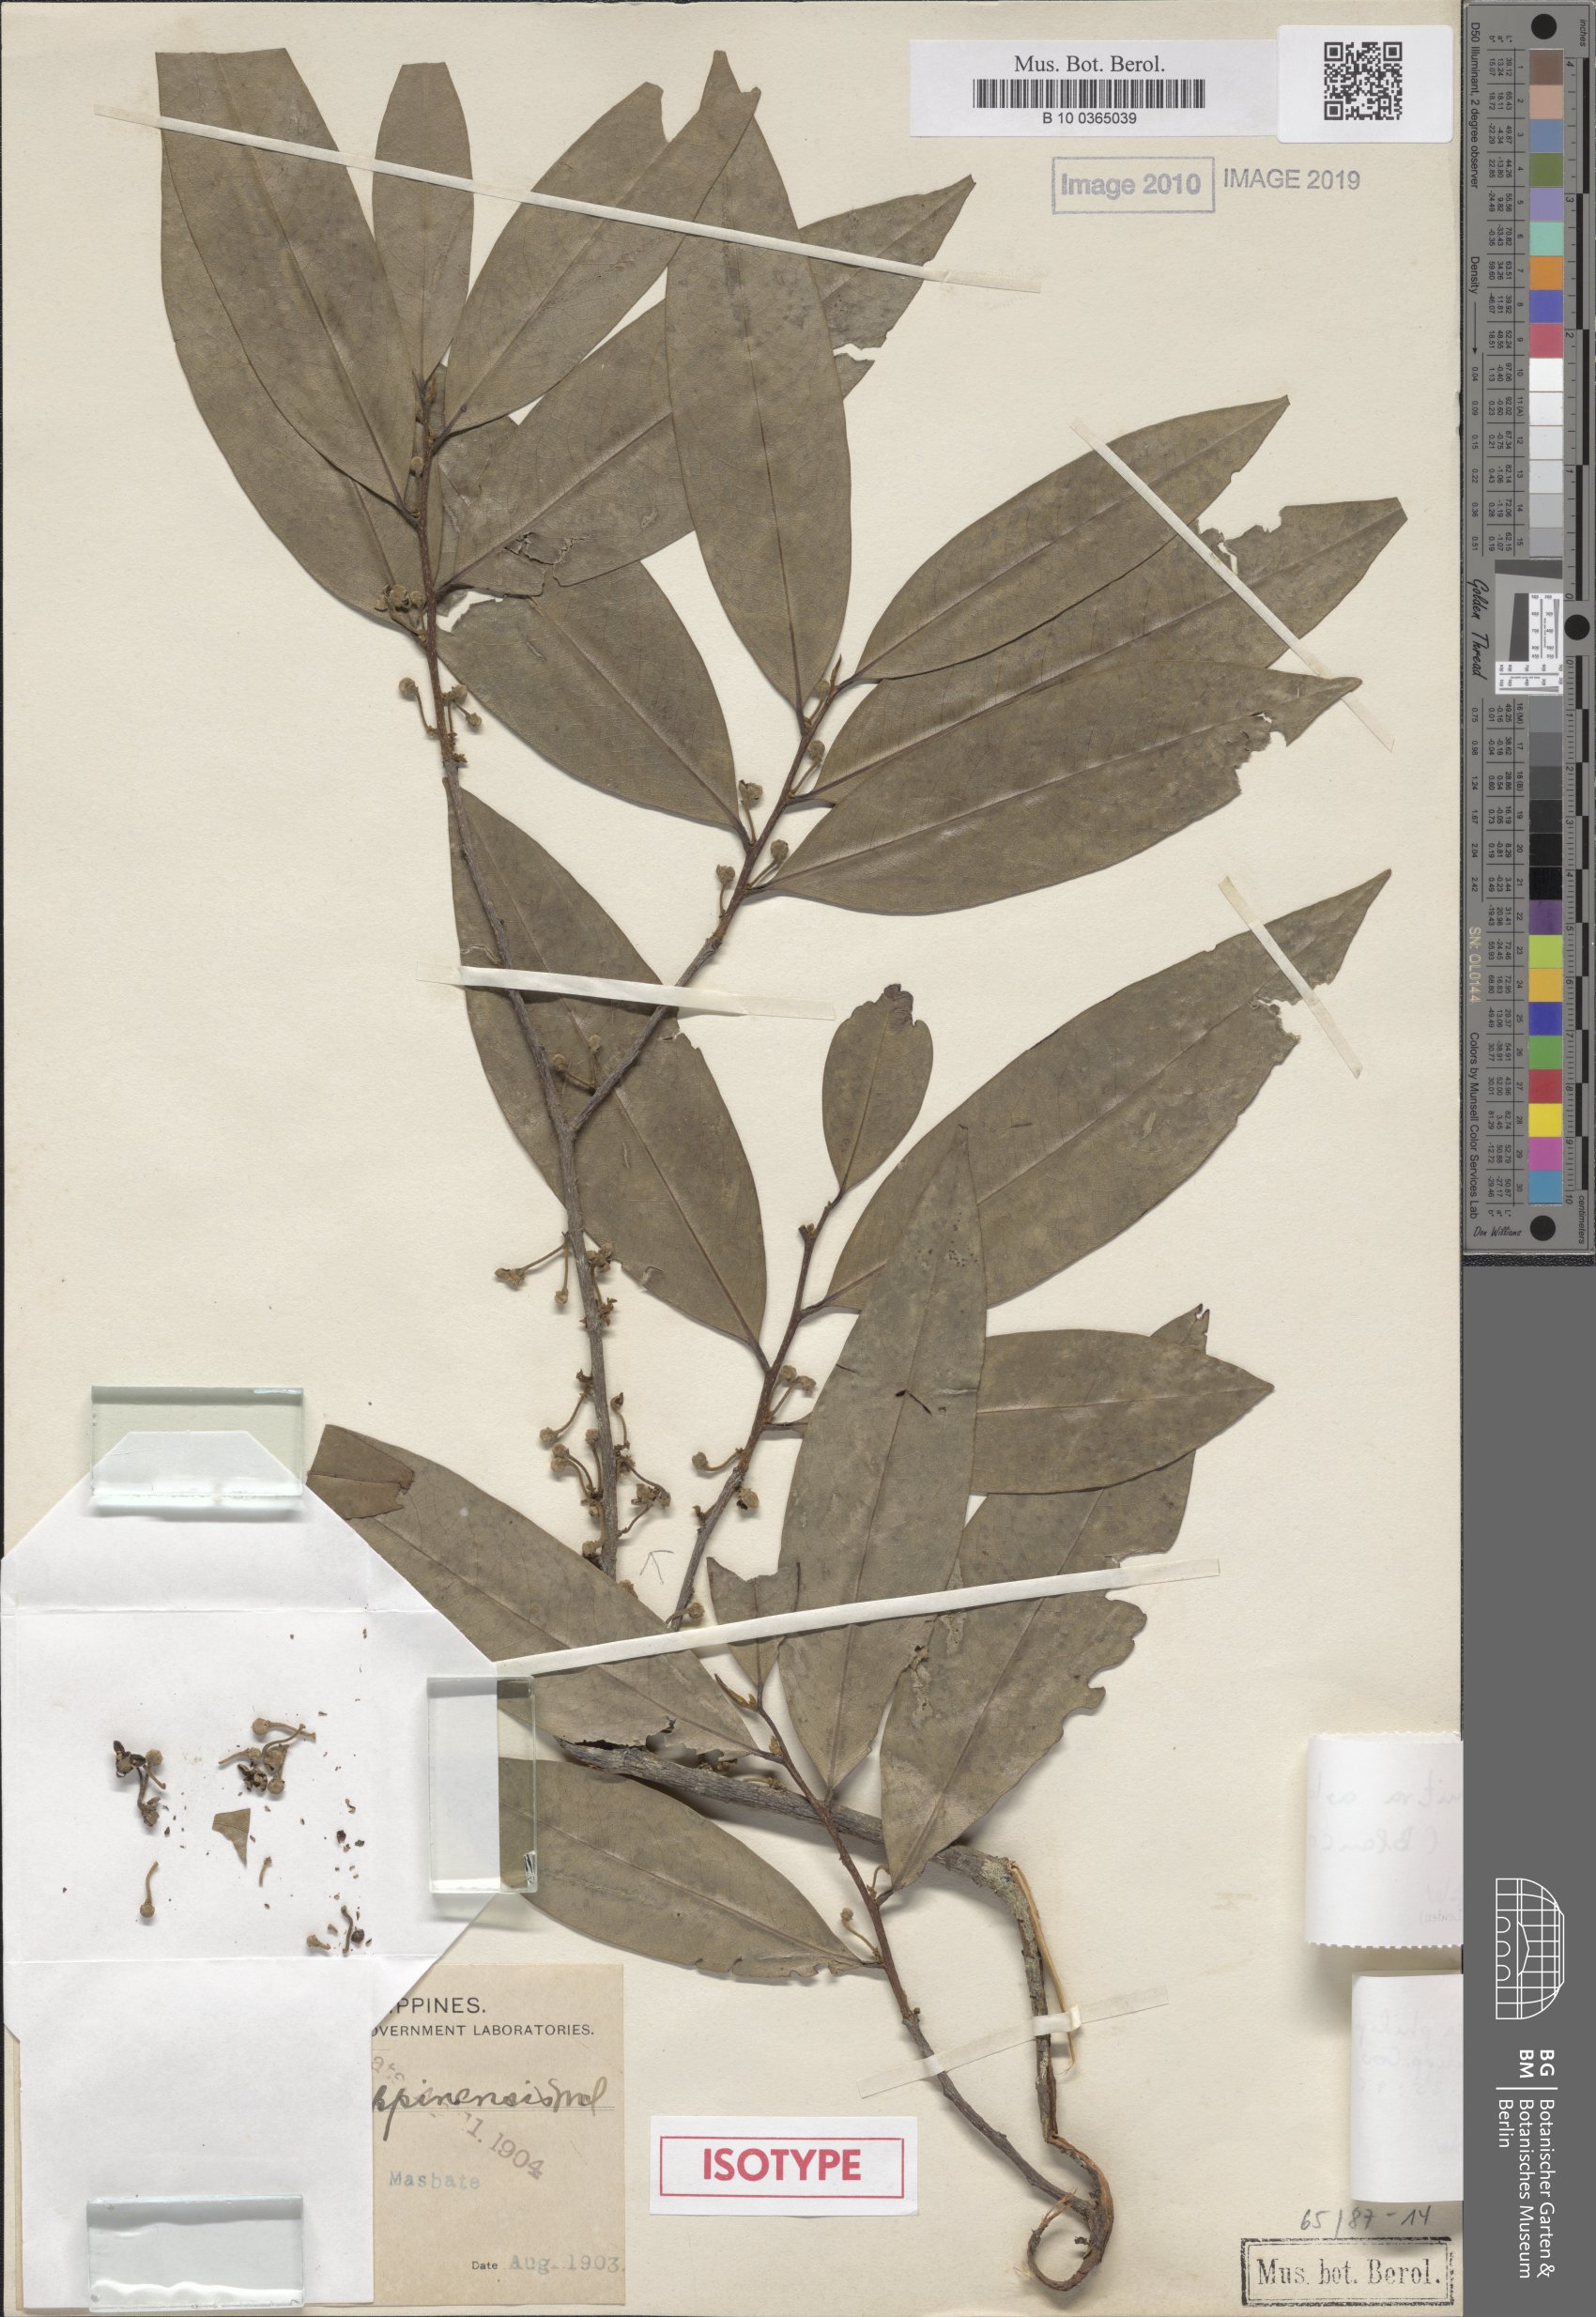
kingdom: Plantae
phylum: Tracheophyta
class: Magnoliopsida
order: Magnoliales
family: Annonaceae
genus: Platymitra
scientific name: Platymitra arborea
